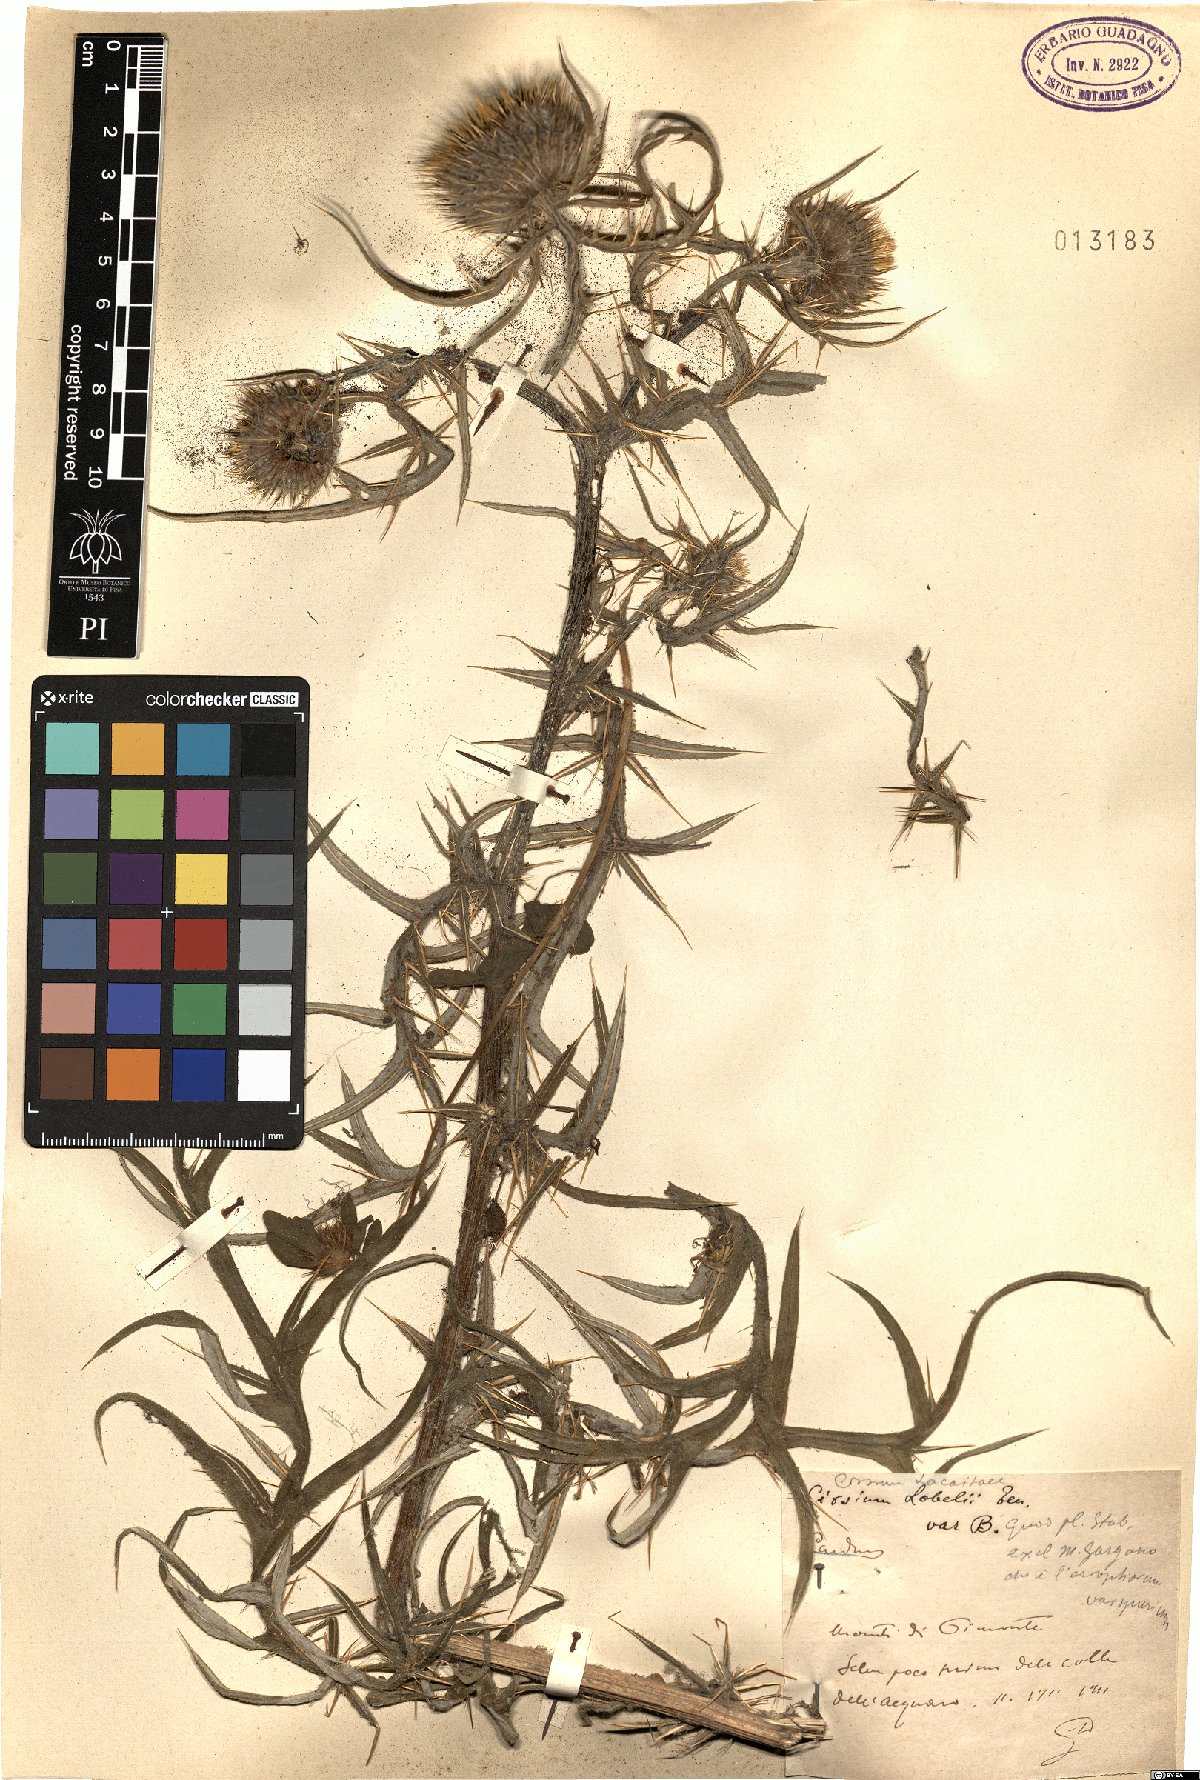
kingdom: Plantae
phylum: Tracheophyta
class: Magnoliopsida
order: Asterales
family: Asteraceae
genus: Lophiolepis
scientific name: Lophiolepis lacaitae
